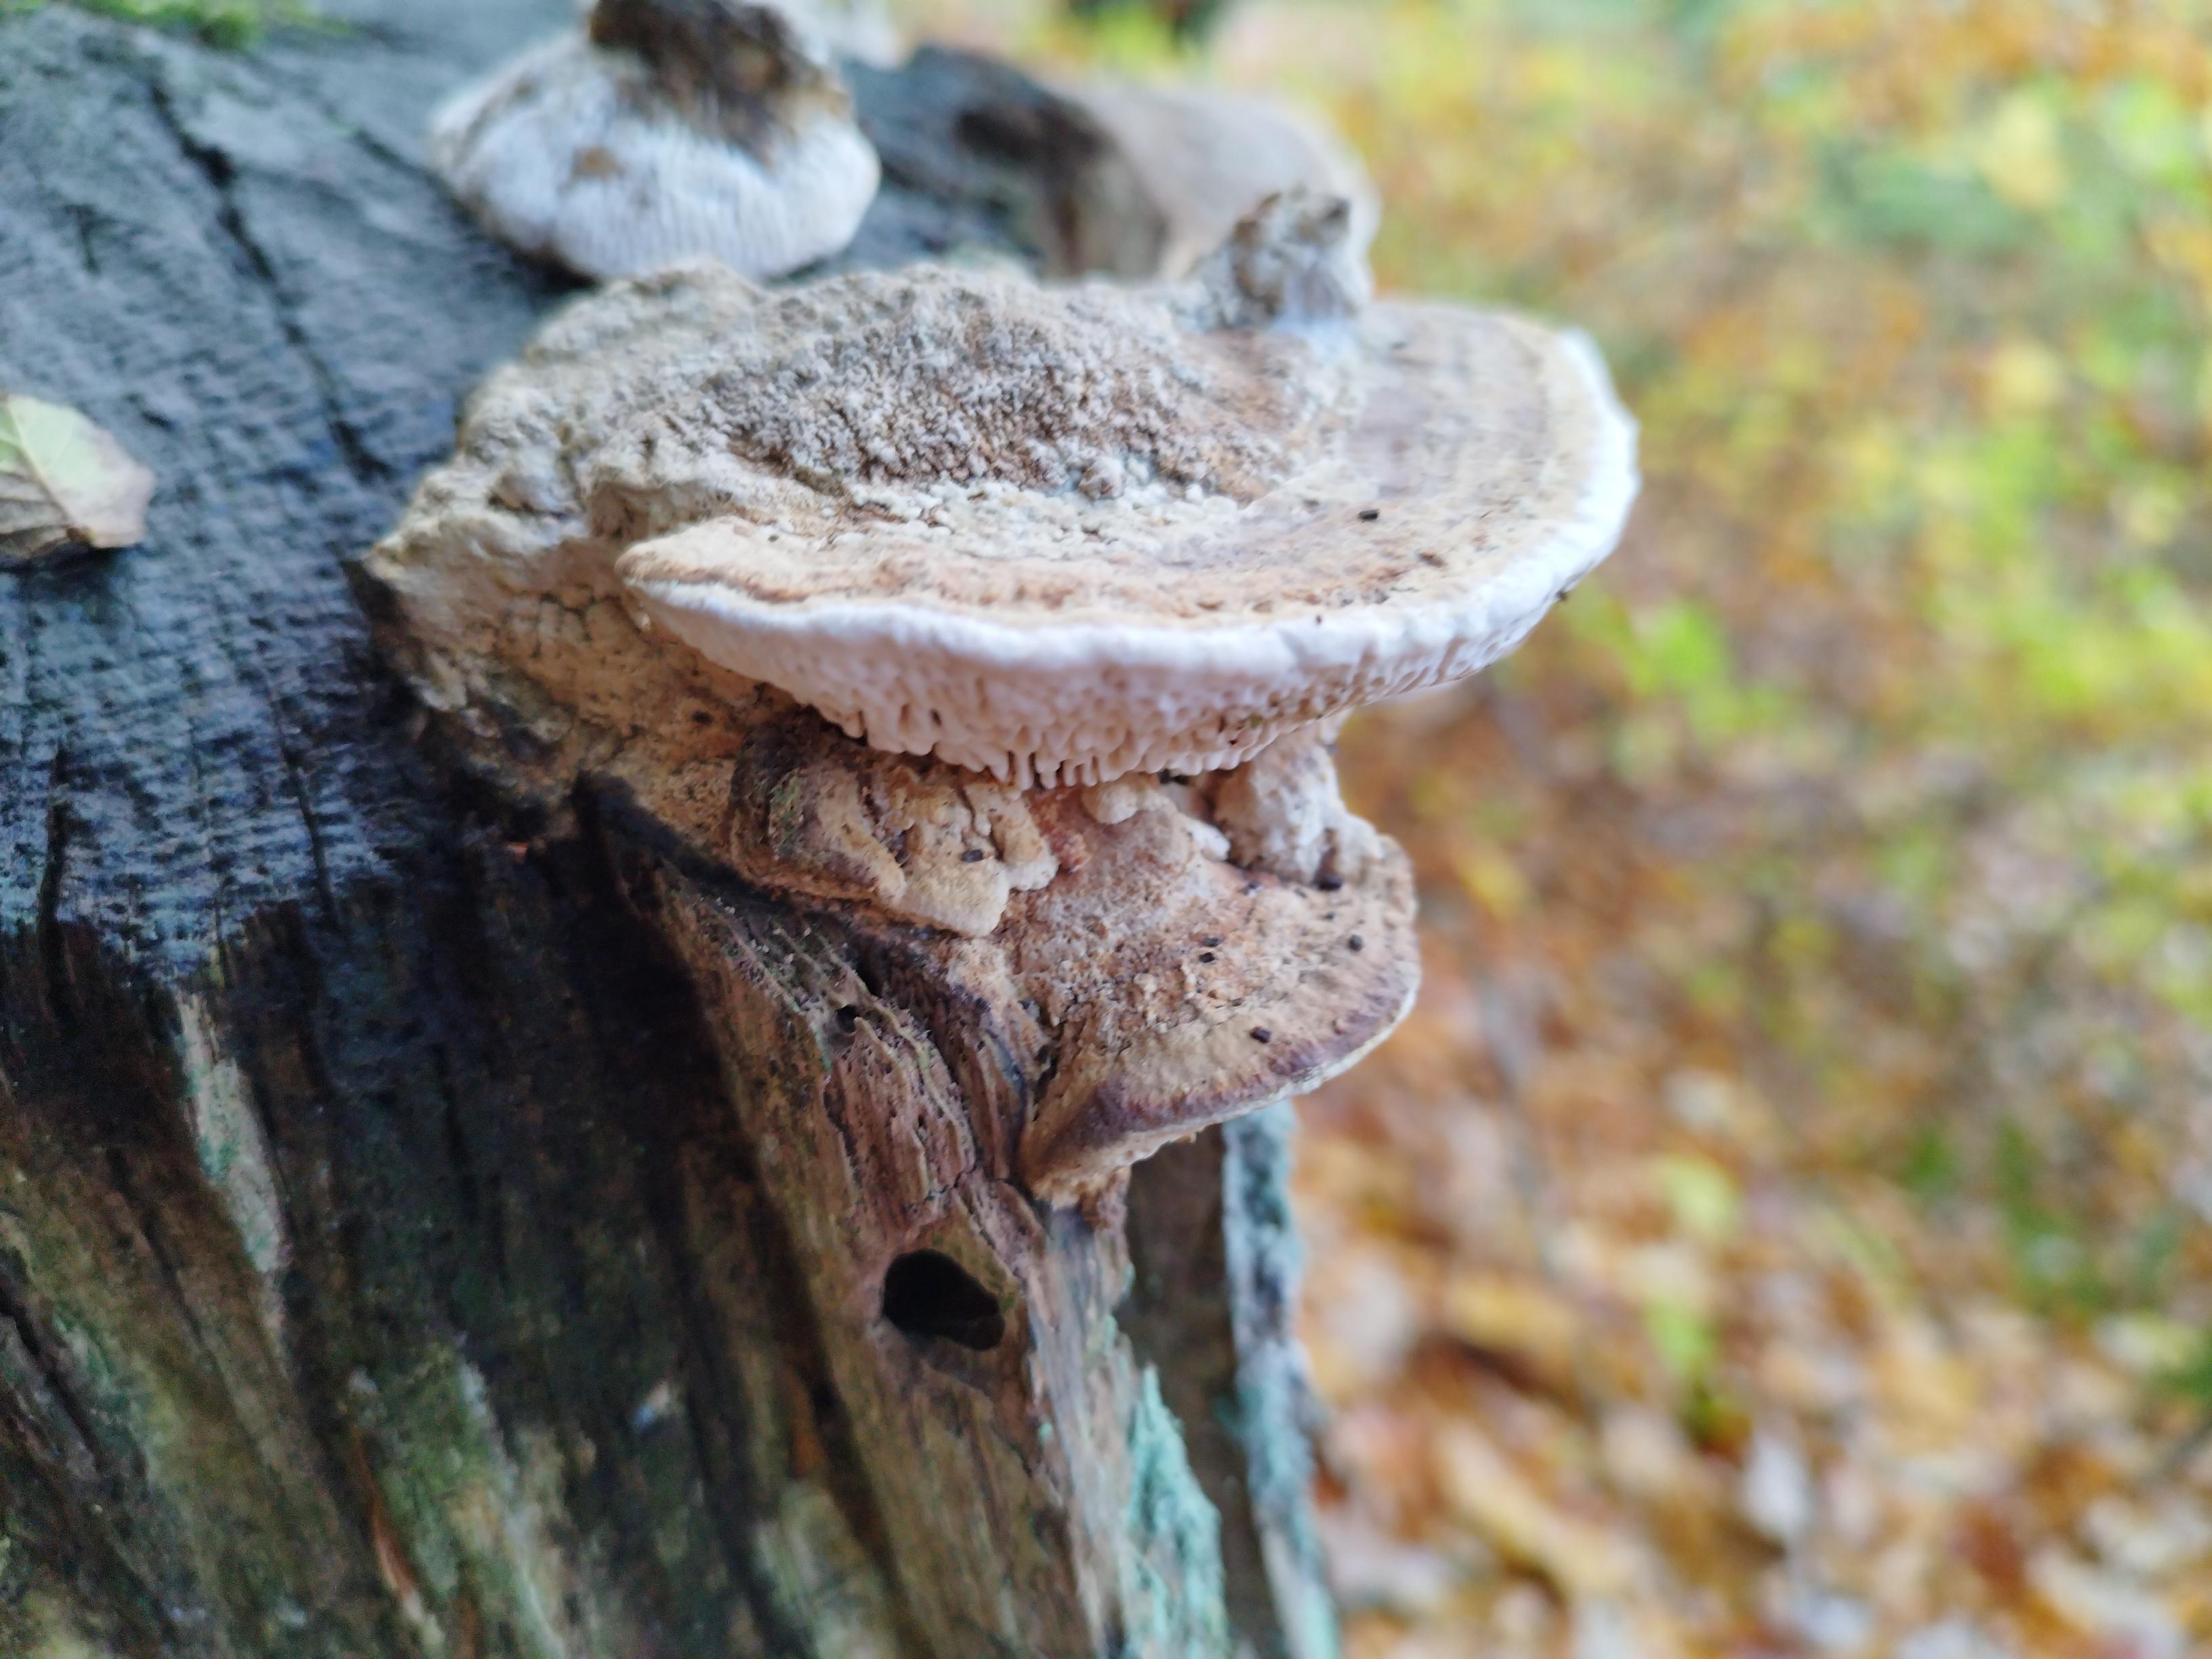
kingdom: Fungi
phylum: Basidiomycota
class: Agaricomycetes
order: Polyporales
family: Fomitopsidaceae
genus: Daedalea
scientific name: Daedalea quercina
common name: ege-labyrintsvamp
